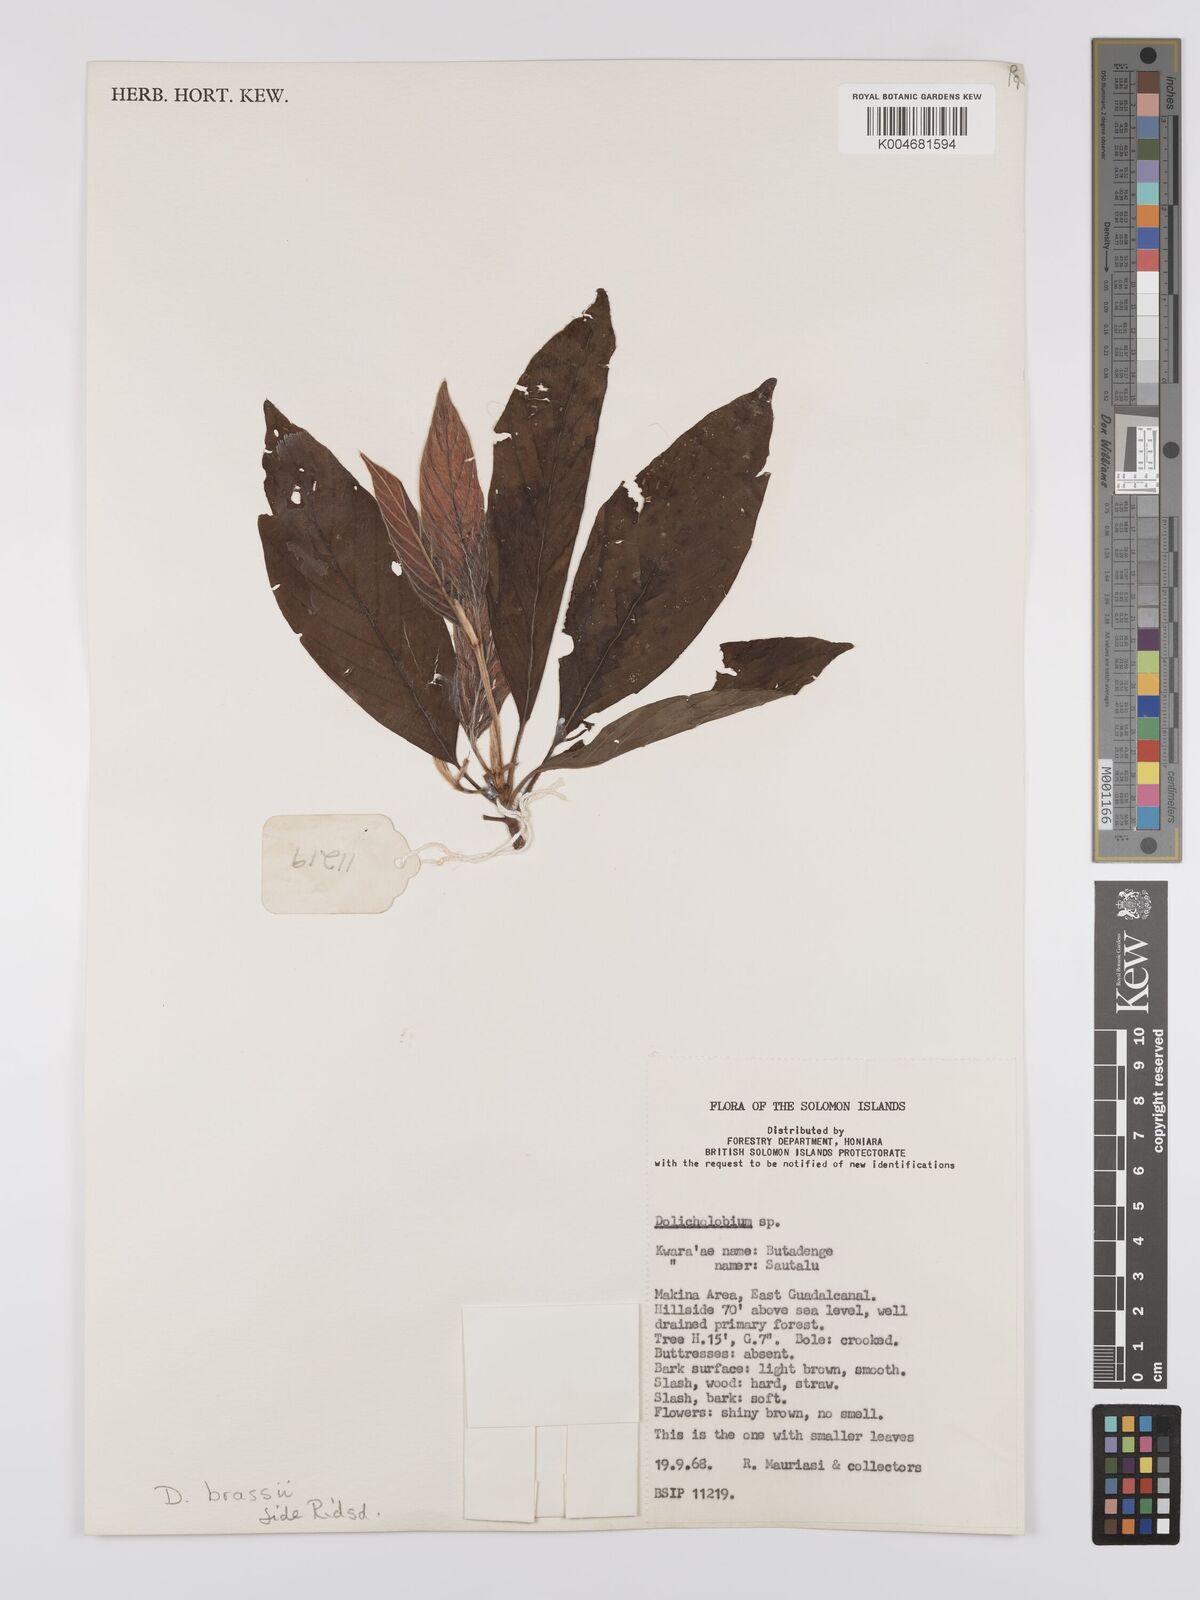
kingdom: Plantae
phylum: Tracheophyta
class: Magnoliopsida
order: Gentianales
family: Rubiaceae
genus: Dolicholobium
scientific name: Dolicholobium brassii
